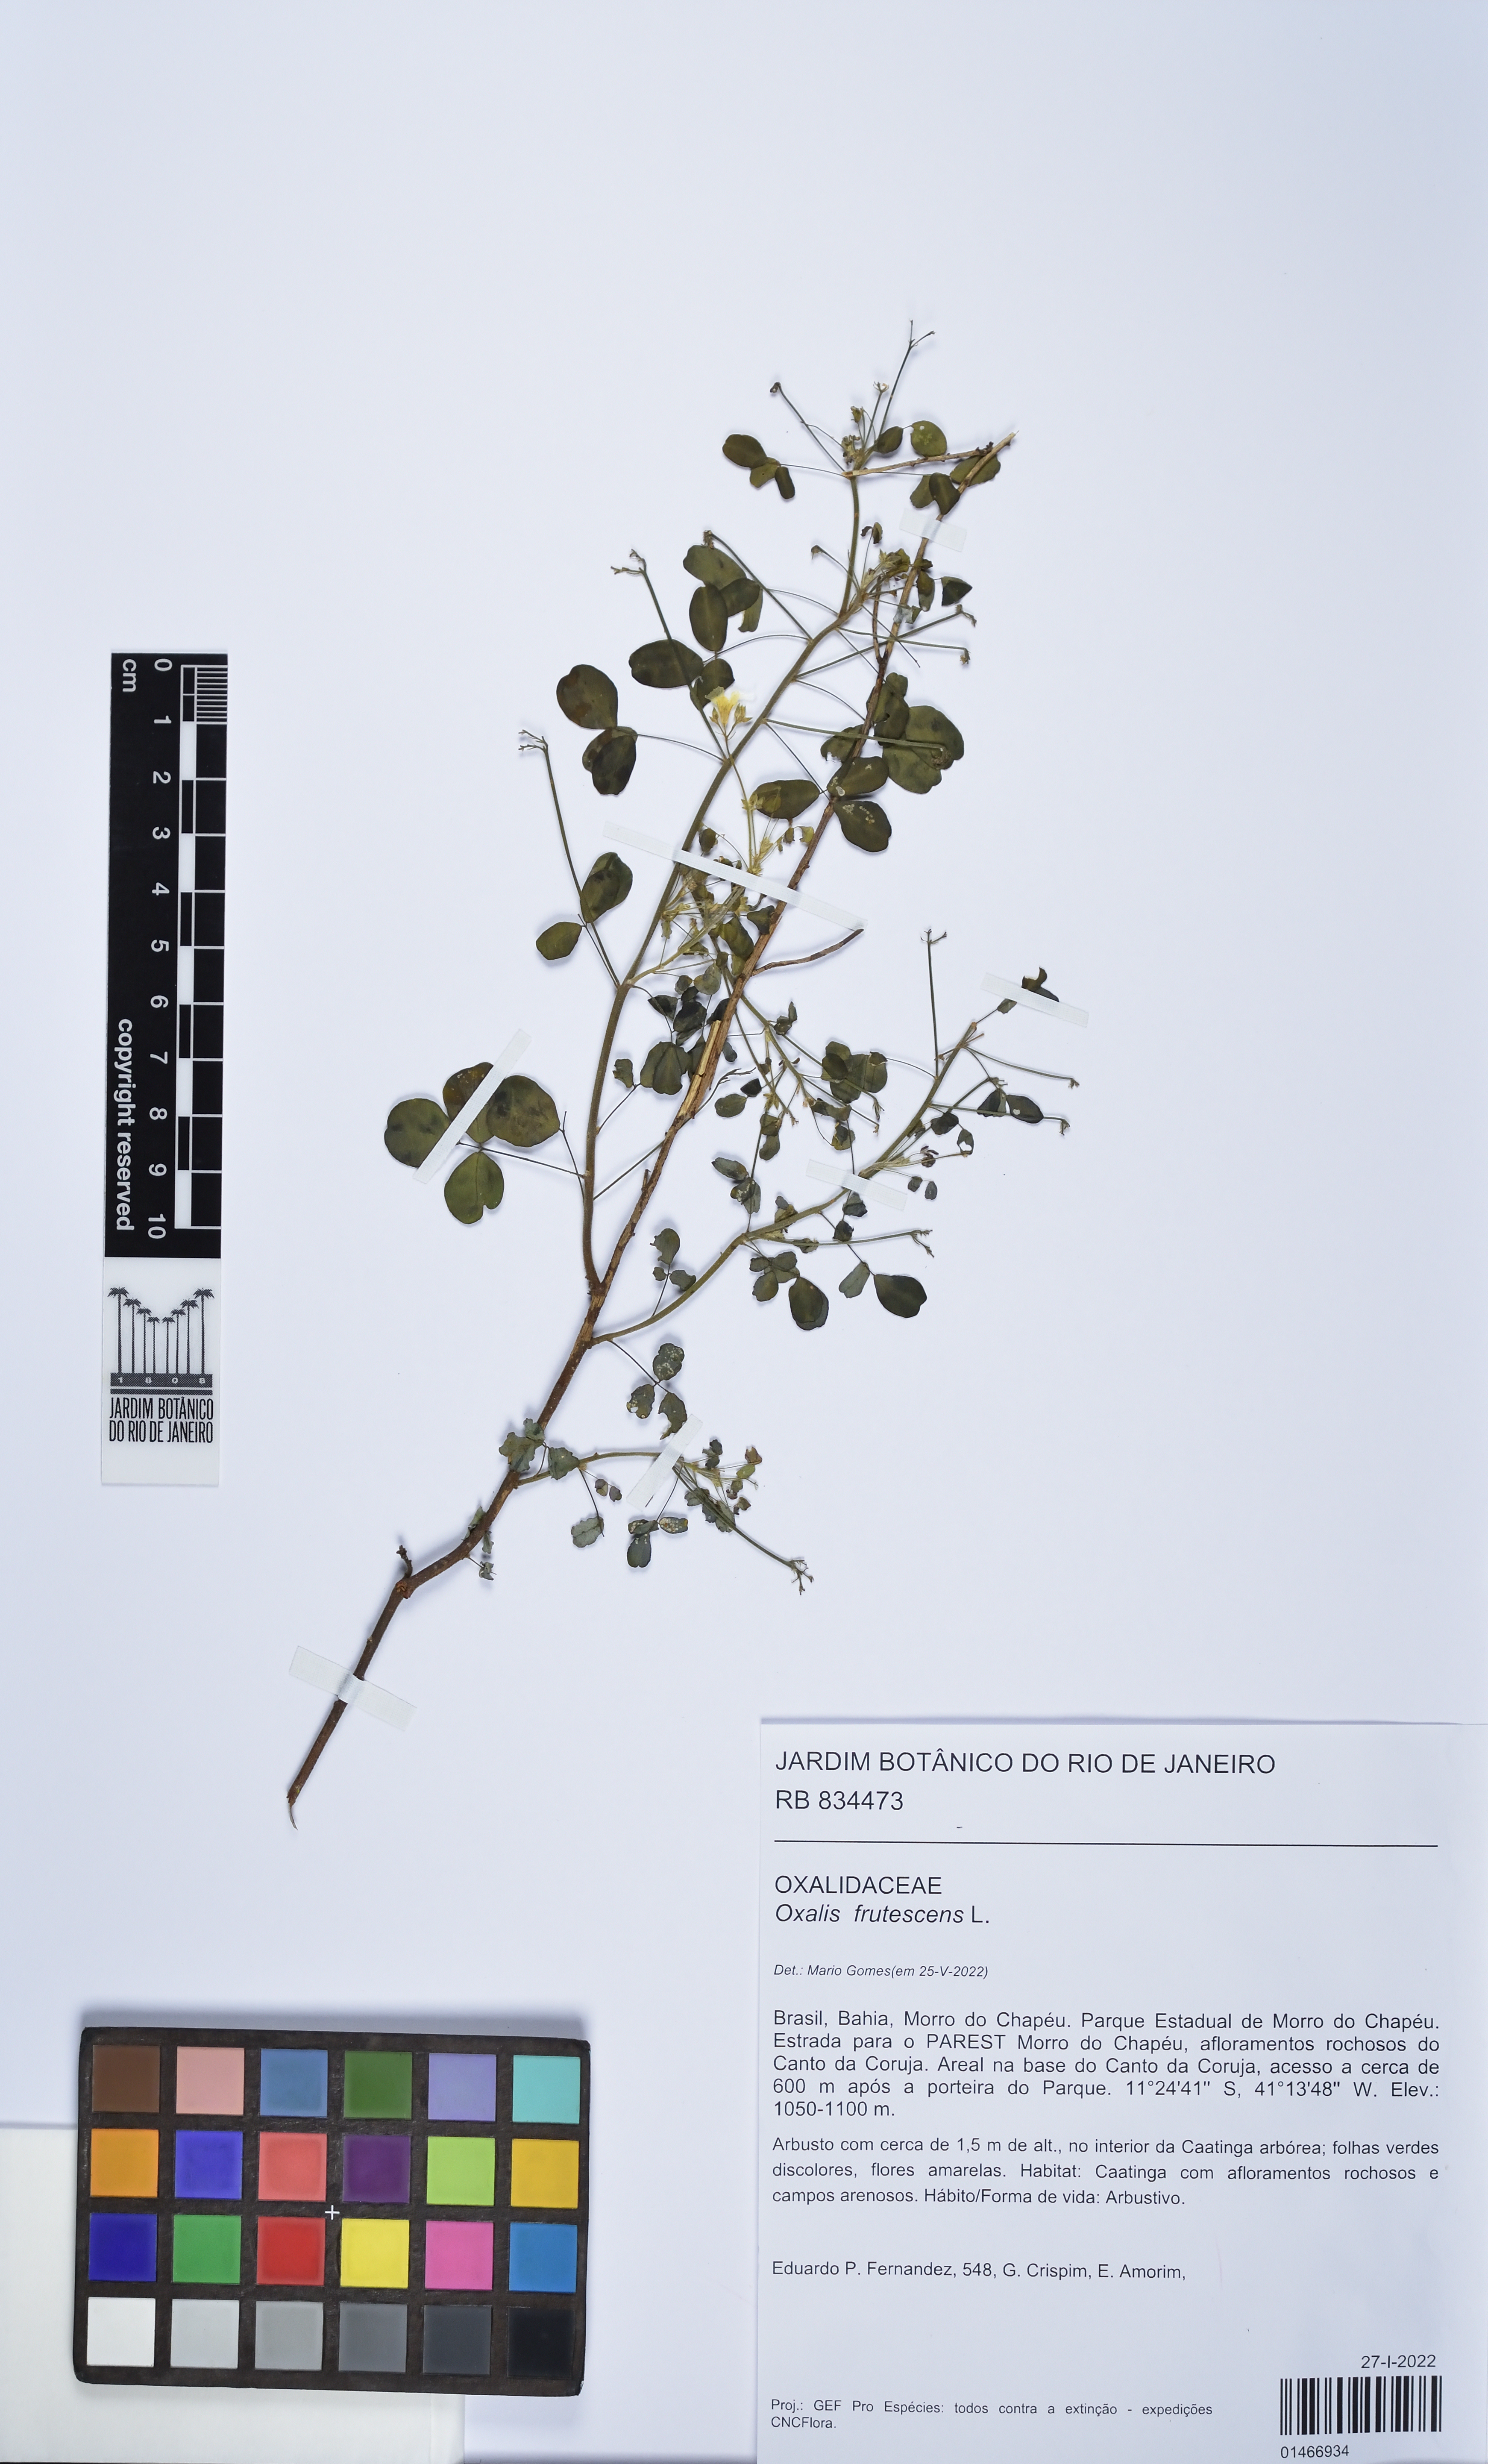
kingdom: Plantae
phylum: Tracheophyta
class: Magnoliopsida
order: Oxalidales
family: Oxalidaceae
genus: Oxalis
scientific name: Oxalis frutescens
